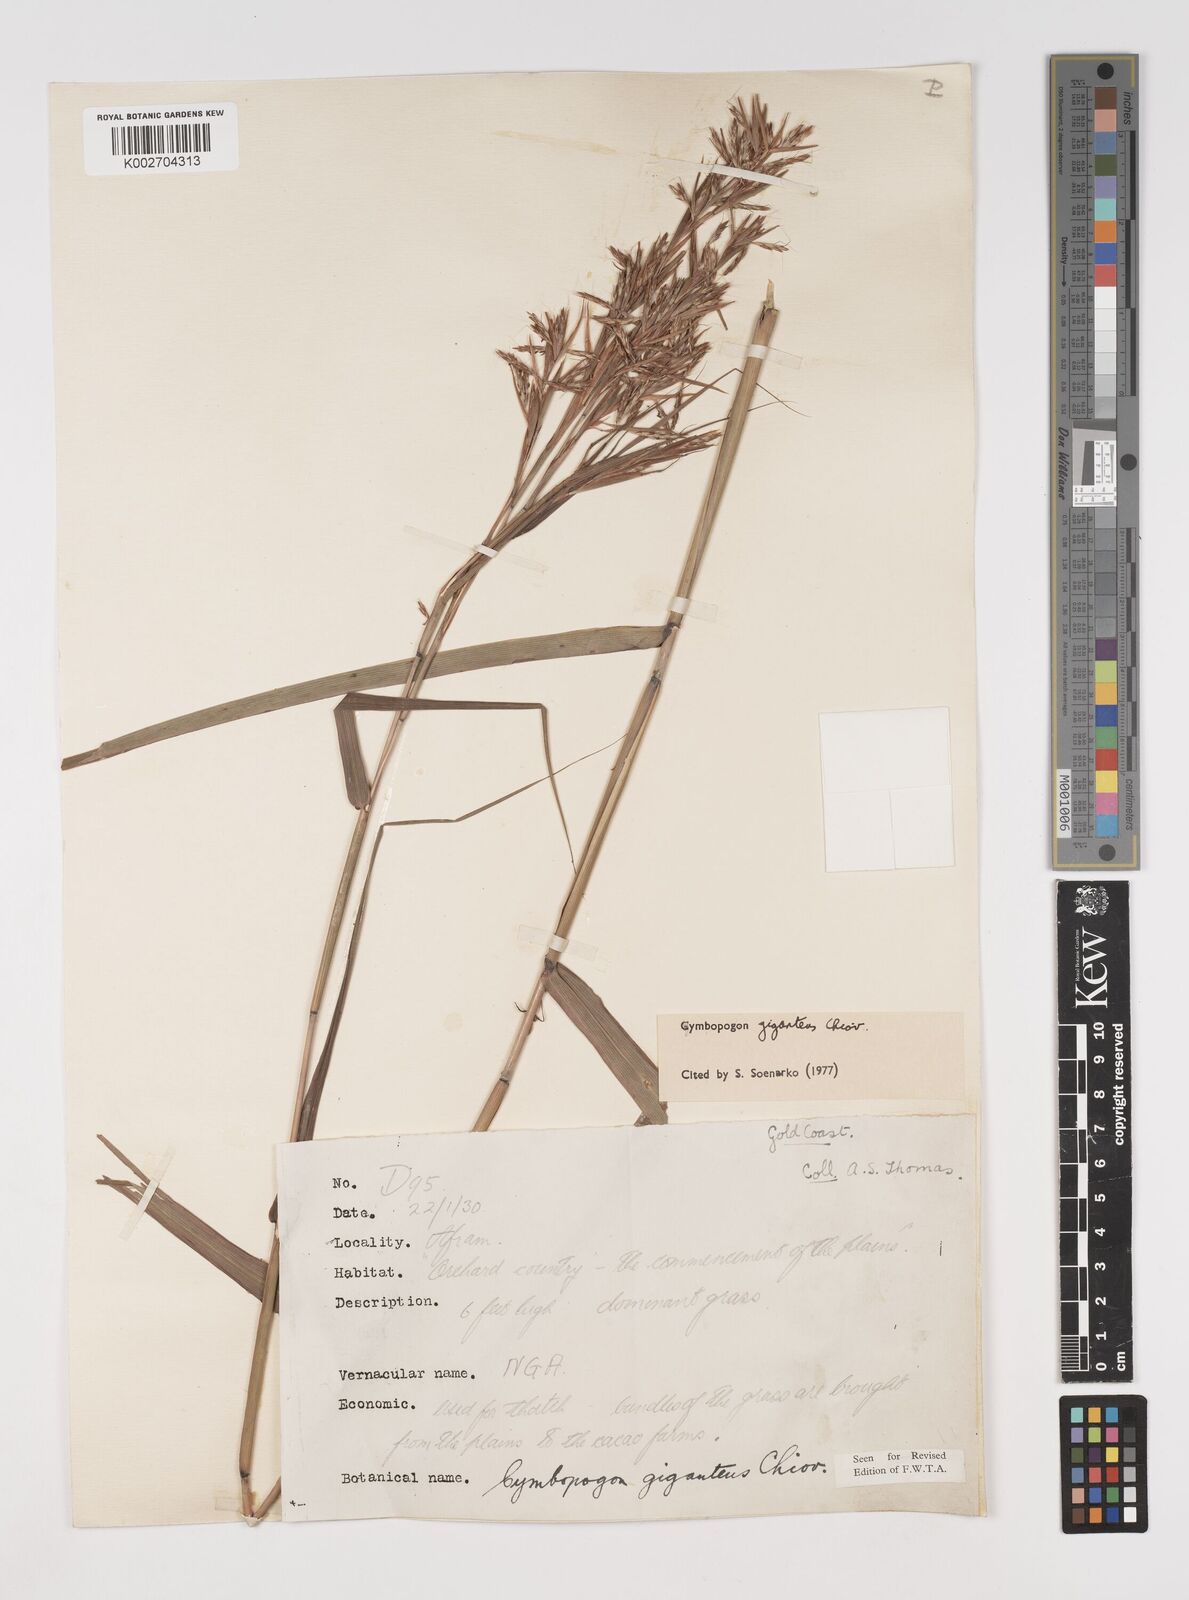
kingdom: Plantae
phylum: Tracheophyta
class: Liliopsida
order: Poales
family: Poaceae
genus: Cymbopogon
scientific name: Cymbopogon giganteus
